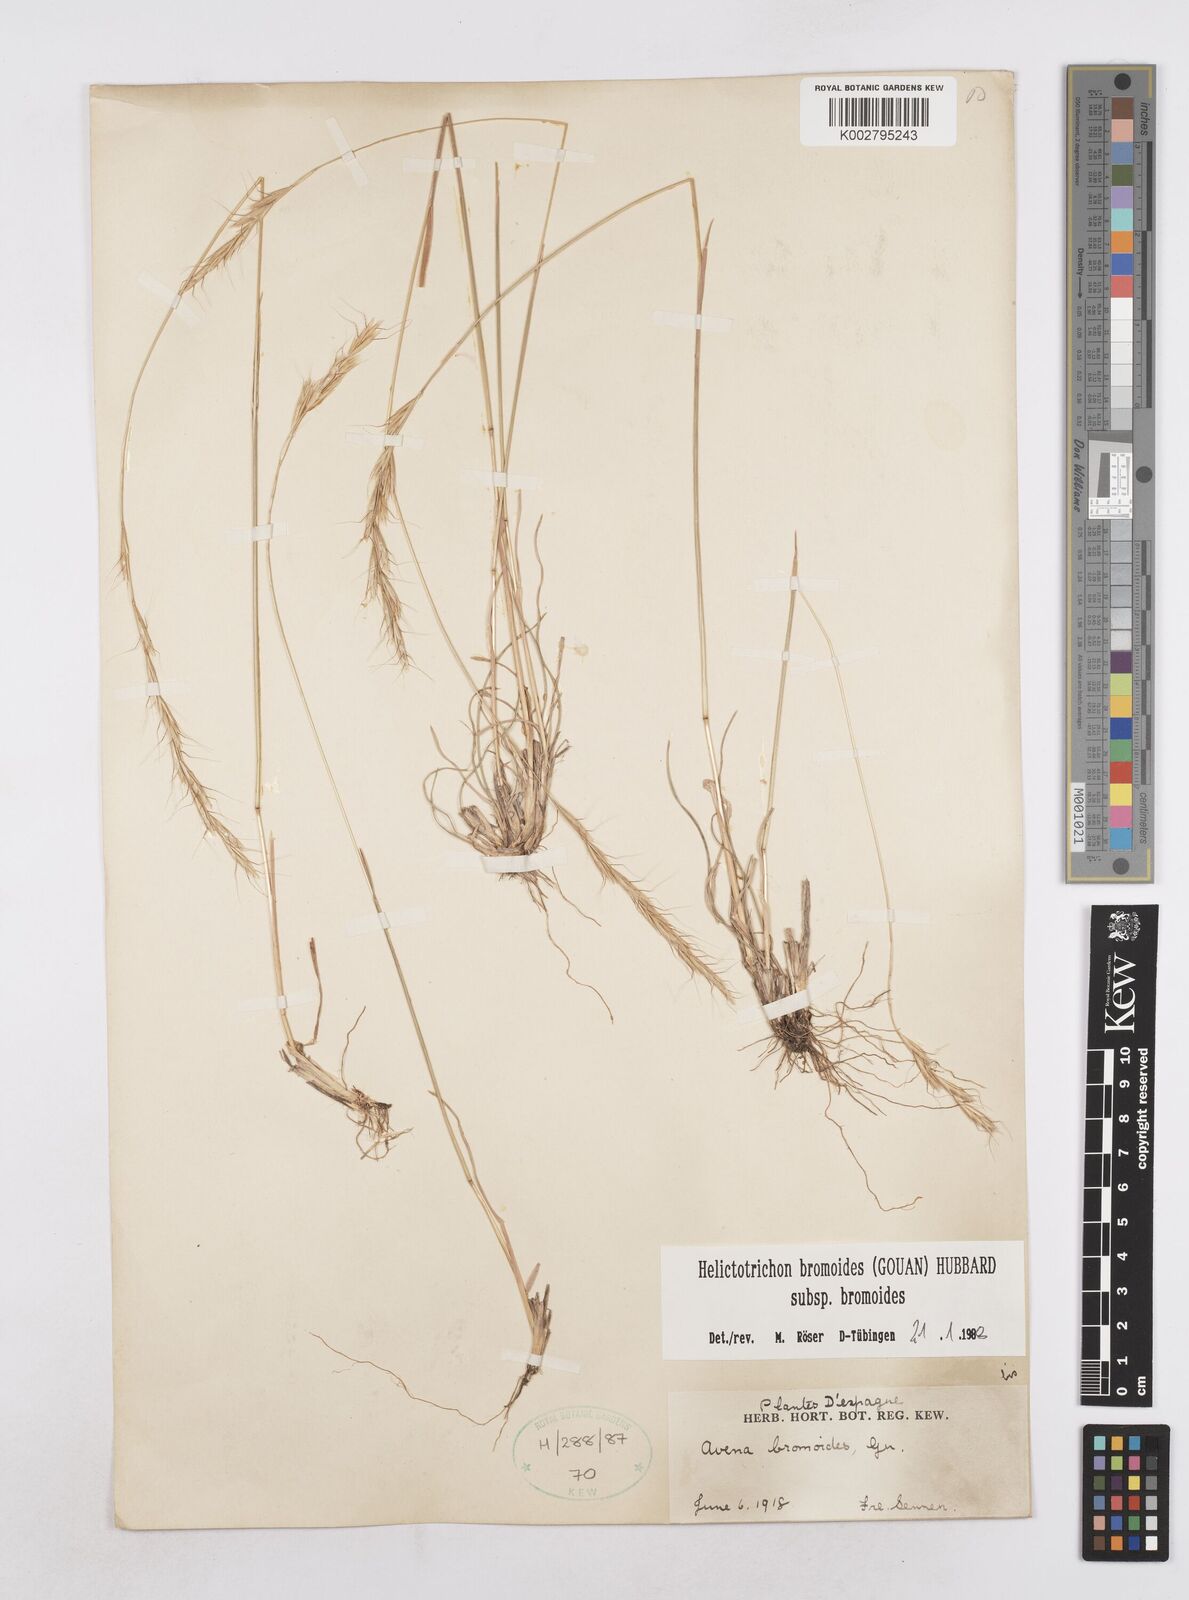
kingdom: Plantae
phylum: Tracheophyta
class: Liliopsida
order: Poales
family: Poaceae
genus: Helictochloa
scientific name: Helictochloa bromoides
